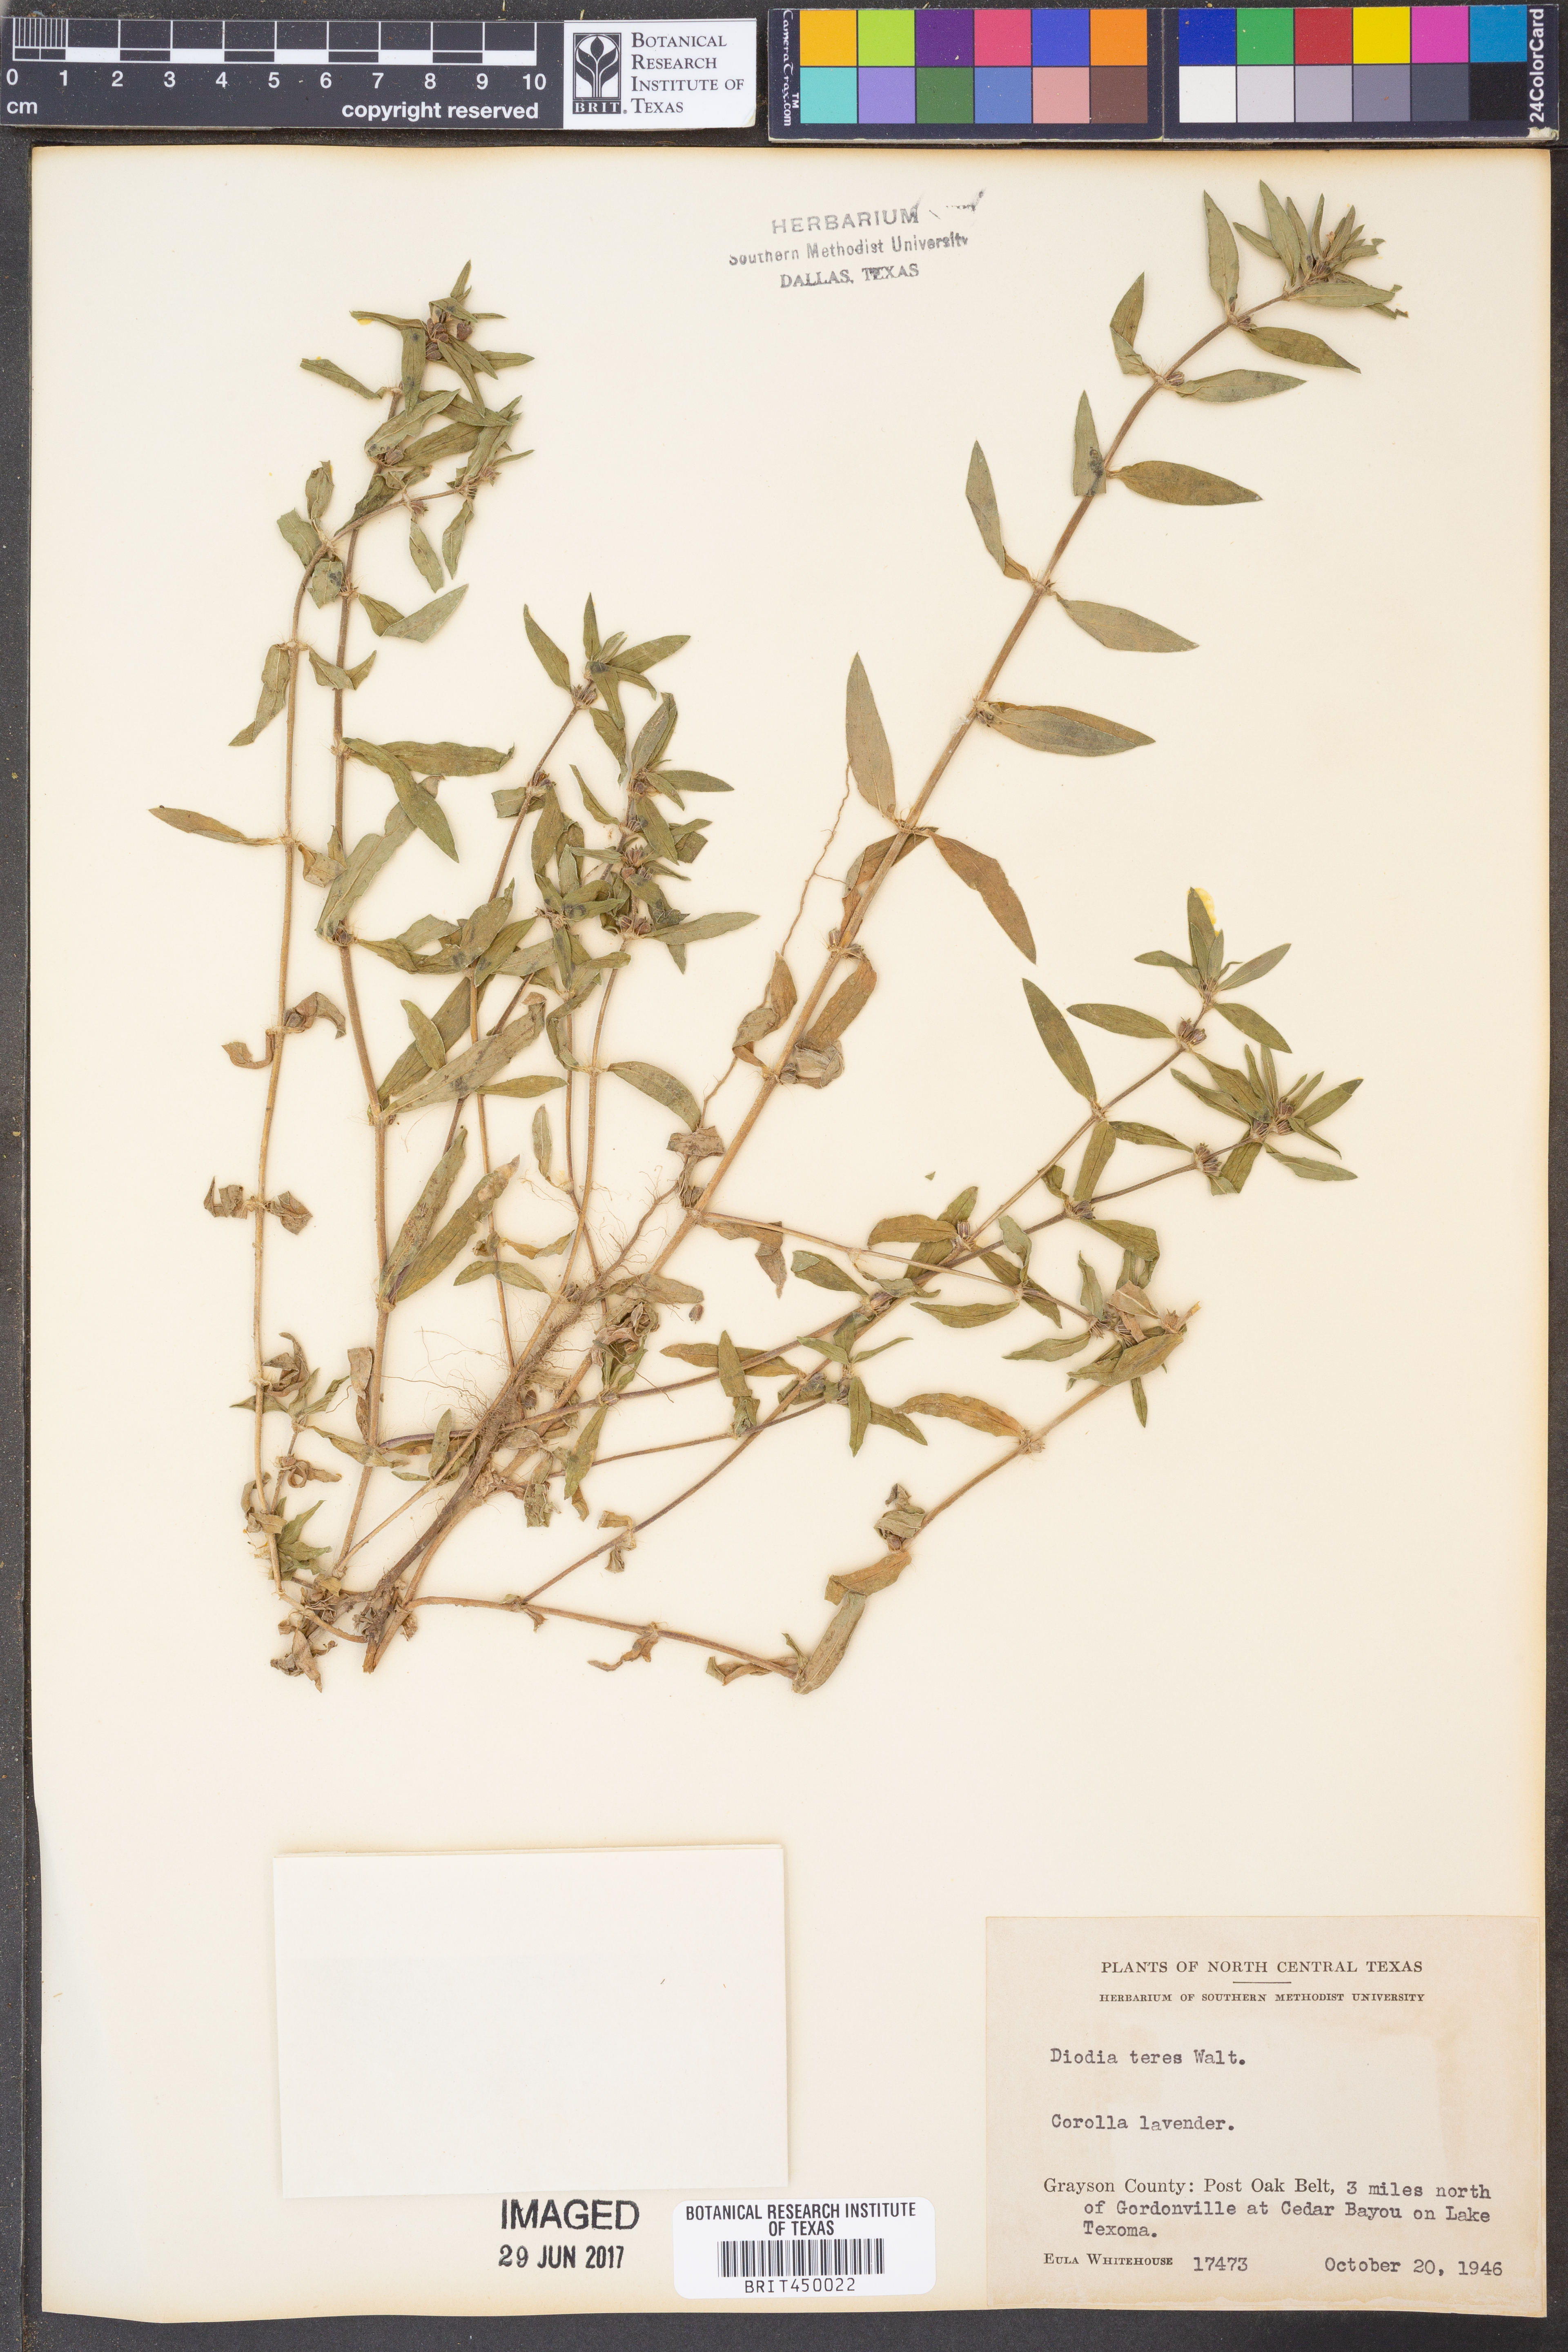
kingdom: Plantae
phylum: Tracheophyta
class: Magnoliopsida
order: Gentianales
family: Rubiaceae
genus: Hexasepalum
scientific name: Hexasepalum teres
